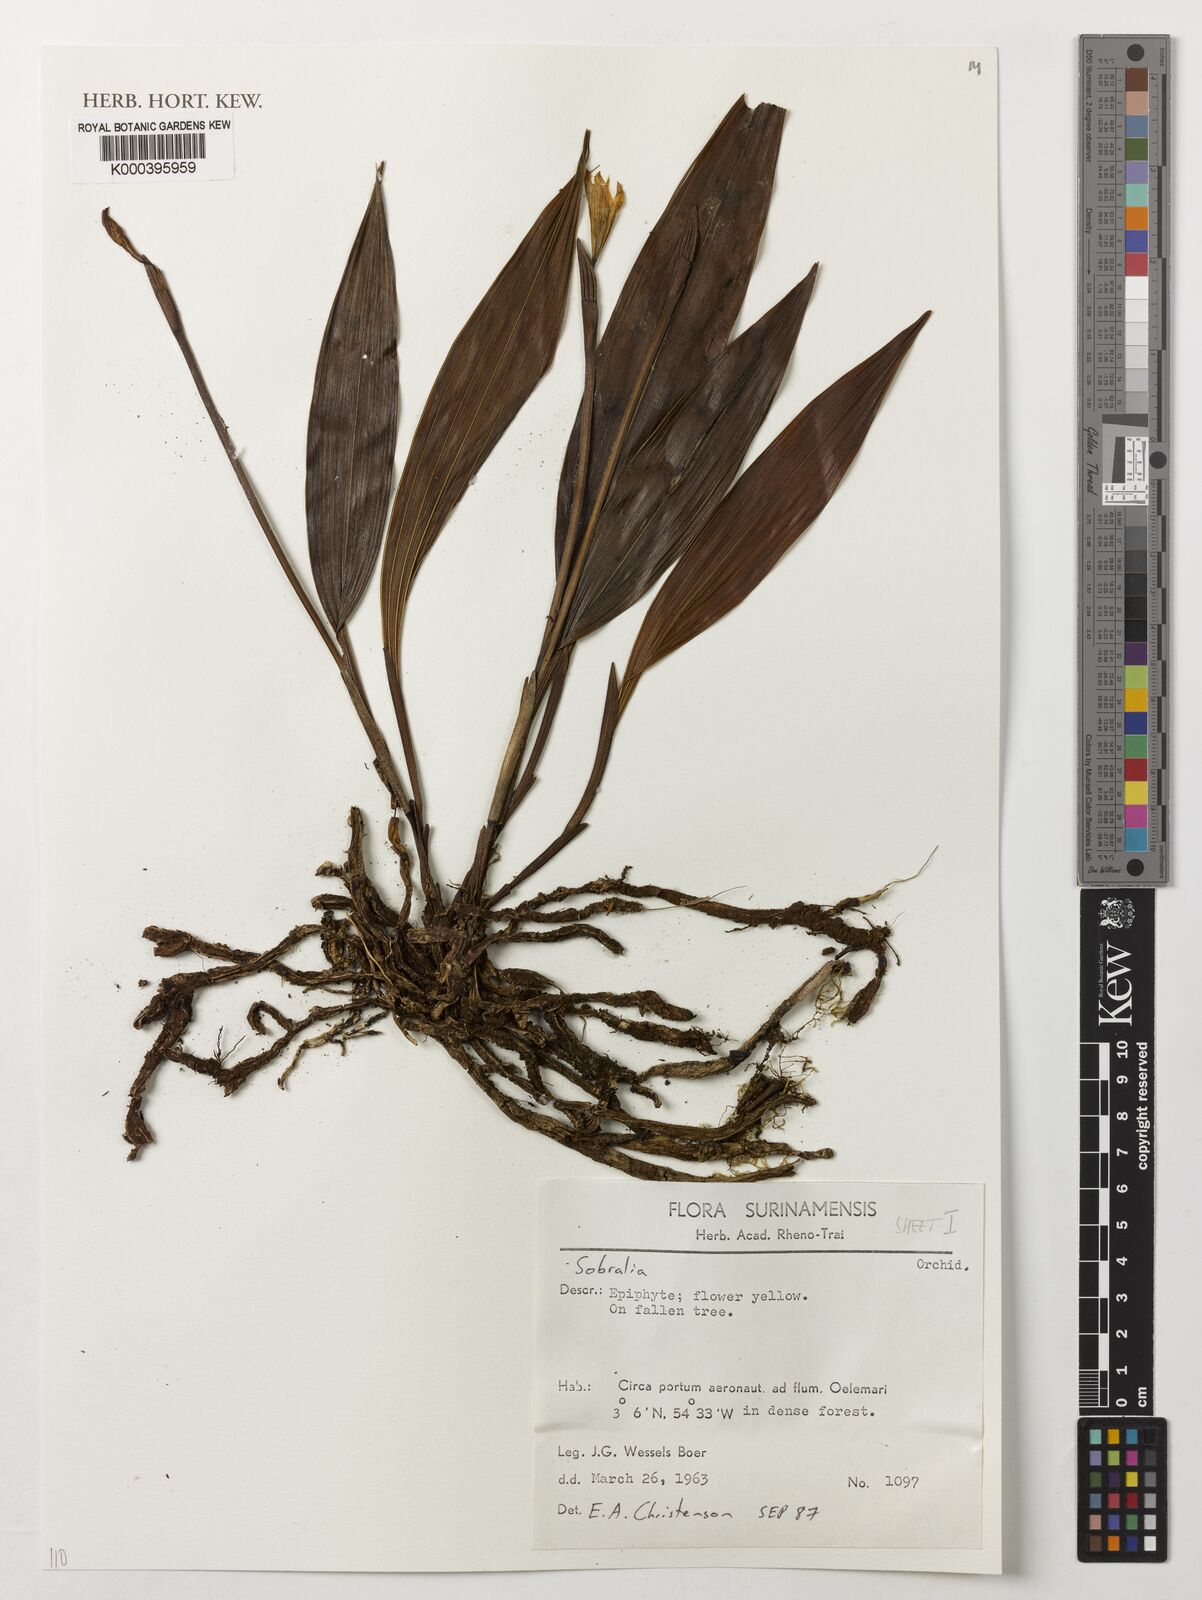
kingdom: Plantae
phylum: Tracheophyta
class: Liliopsida
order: Asparagales
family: Orchidaceae
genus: Sobralia
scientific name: Sobralia
